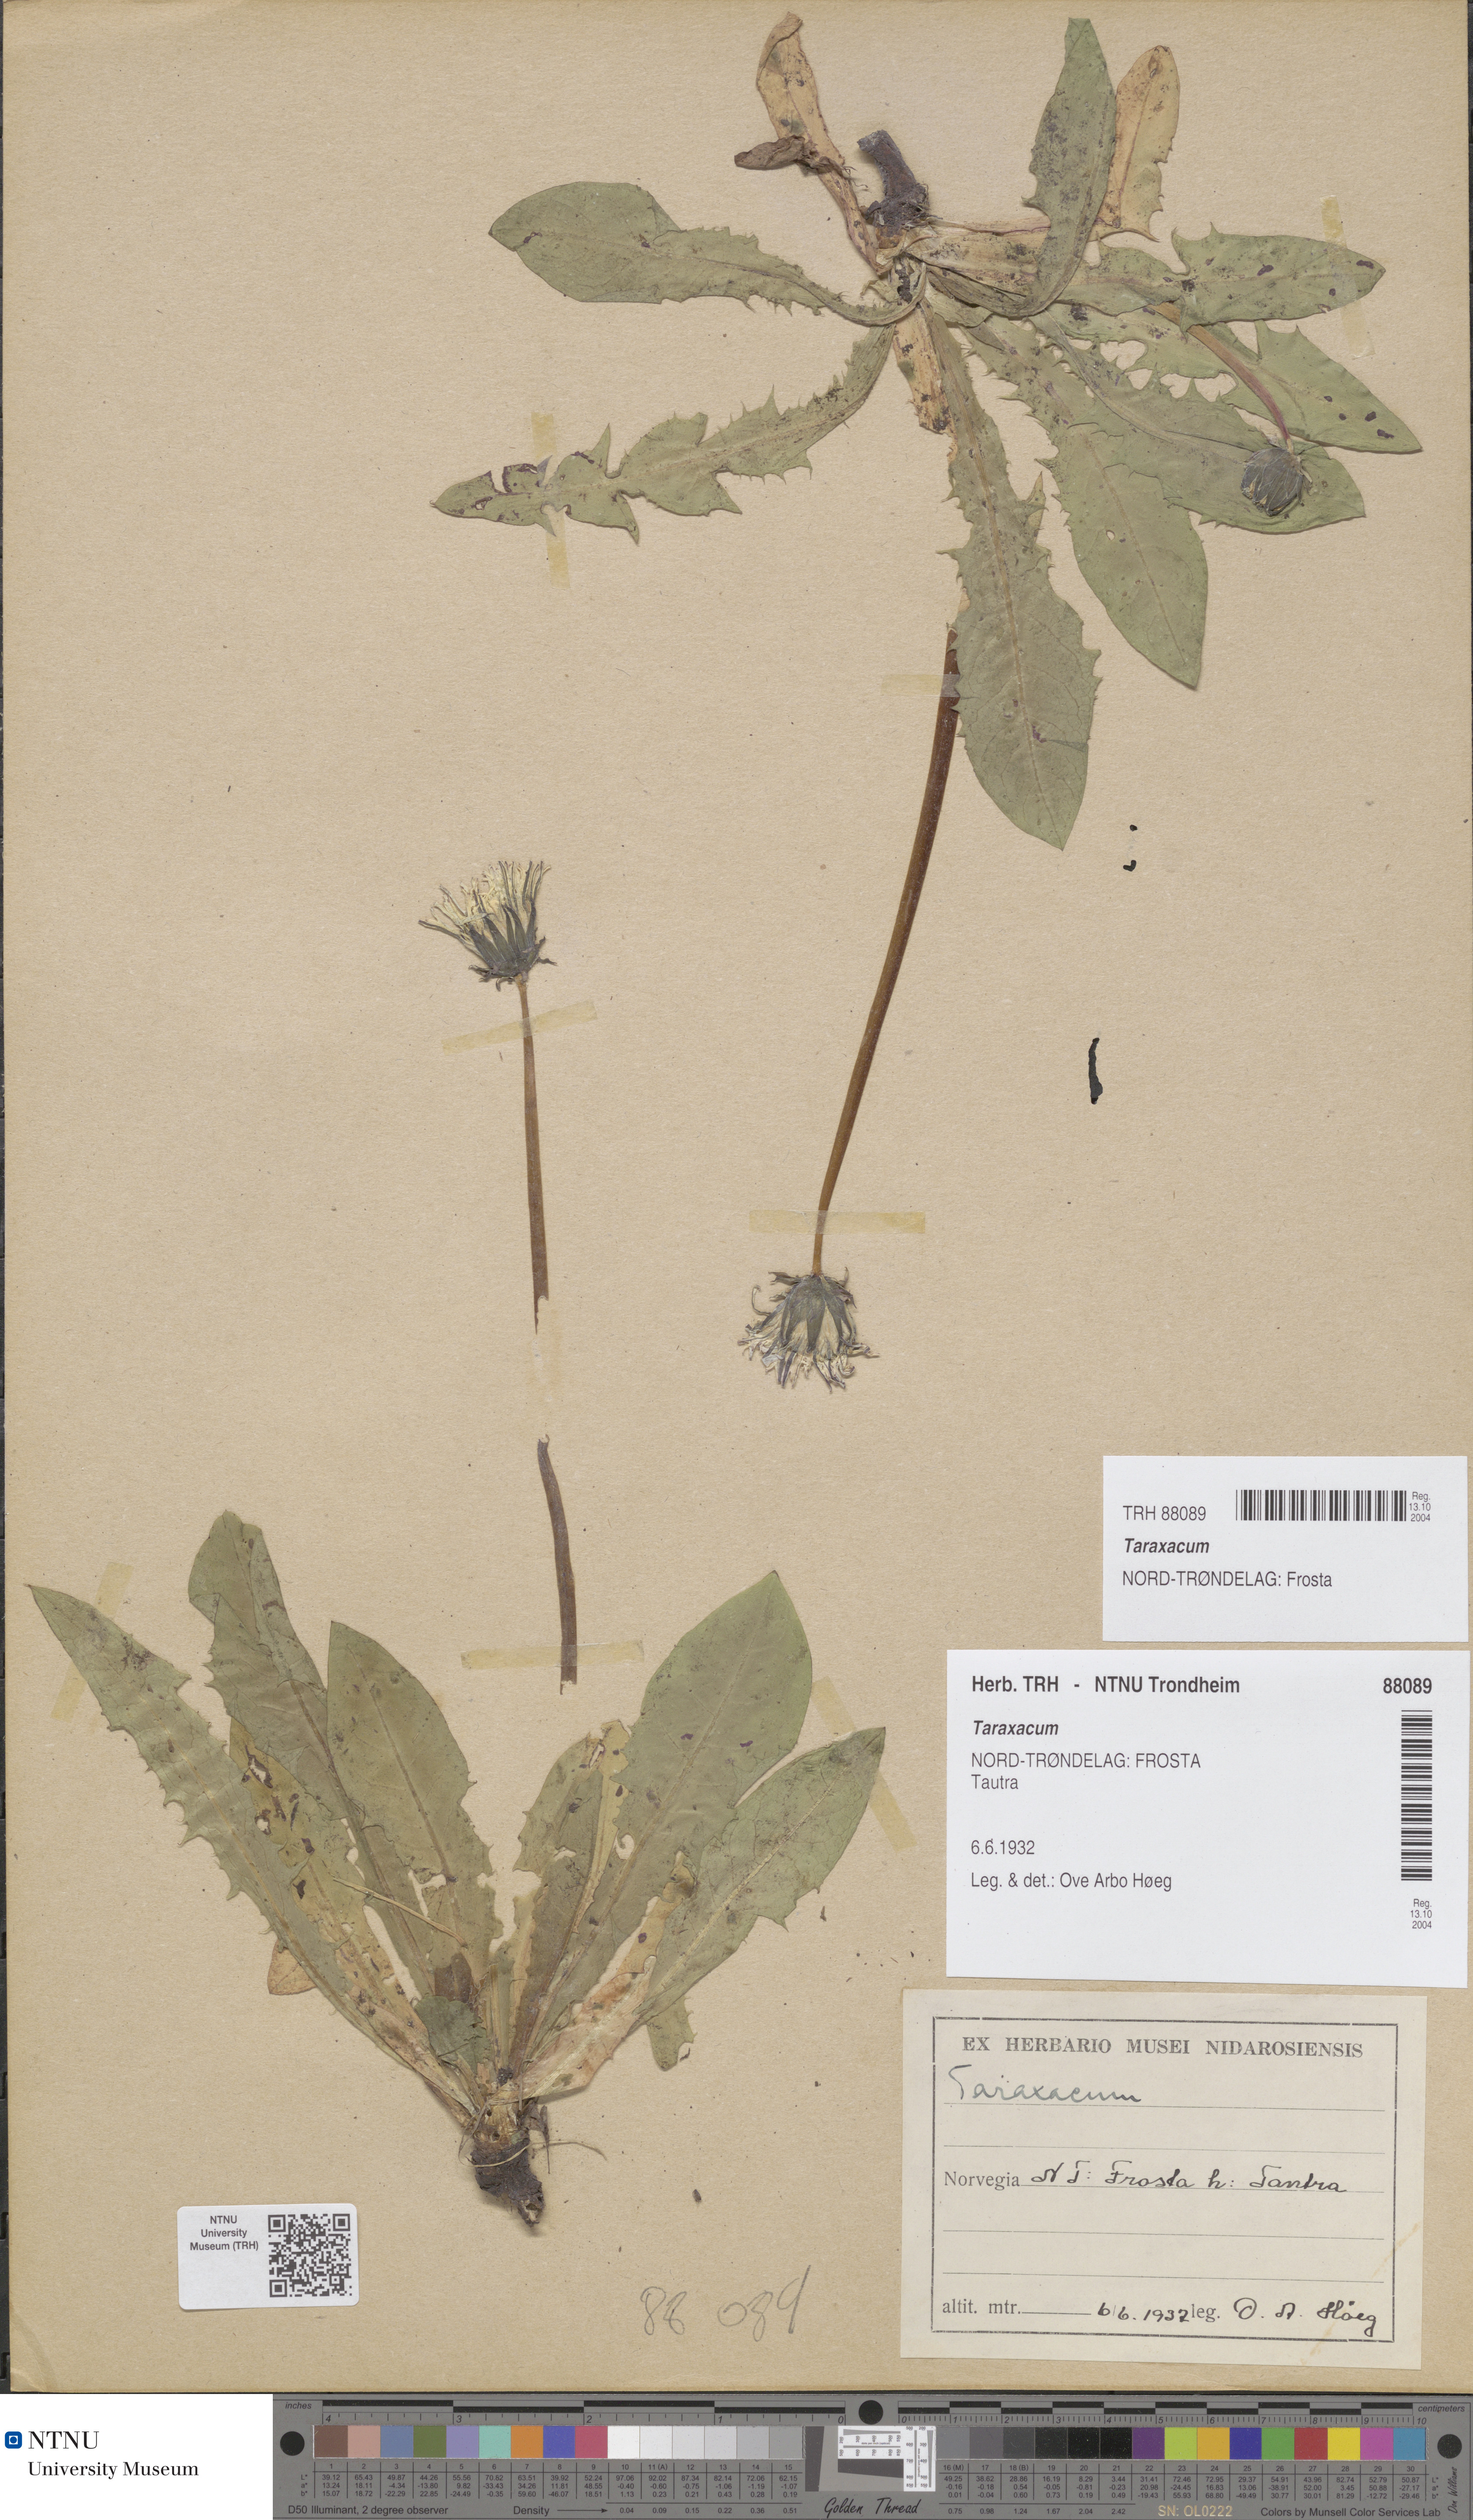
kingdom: Plantae
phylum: Tracheophyta
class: Magnoliopsida
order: Asterales
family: Asteraceae
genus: Taraxacum
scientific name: Taraxacum
